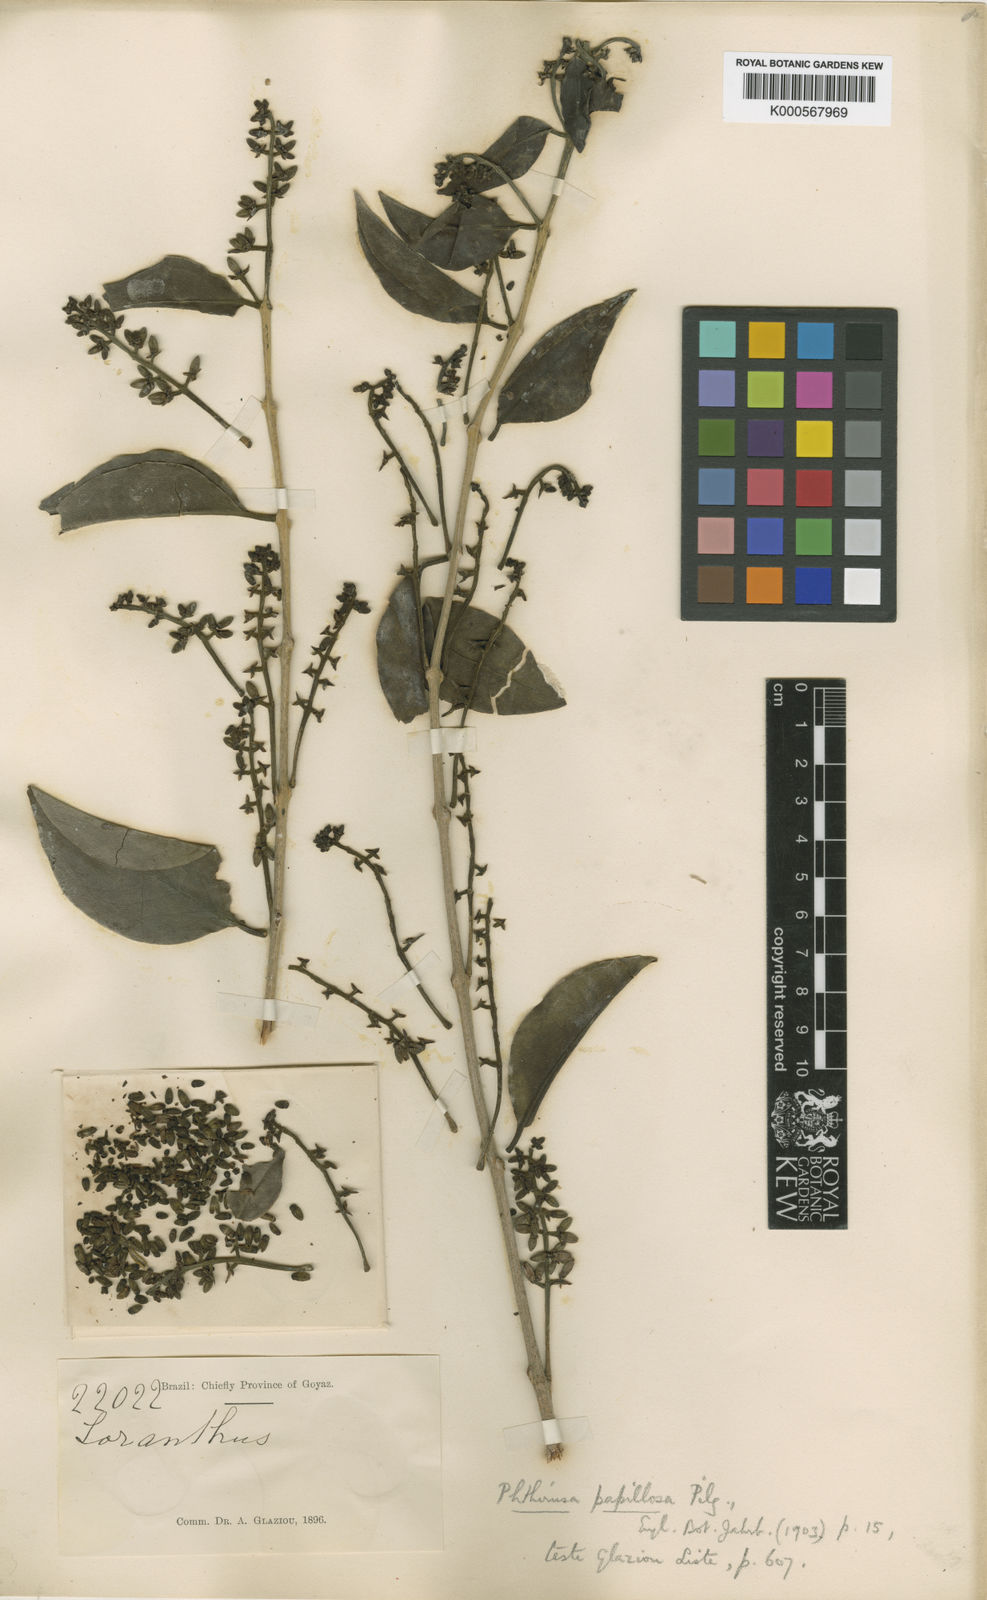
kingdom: Plantae
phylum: Tracheophyta
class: Magnoliopsida
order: Santalales
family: Loranthaceae
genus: Passovia
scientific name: Passovia pedunculata
